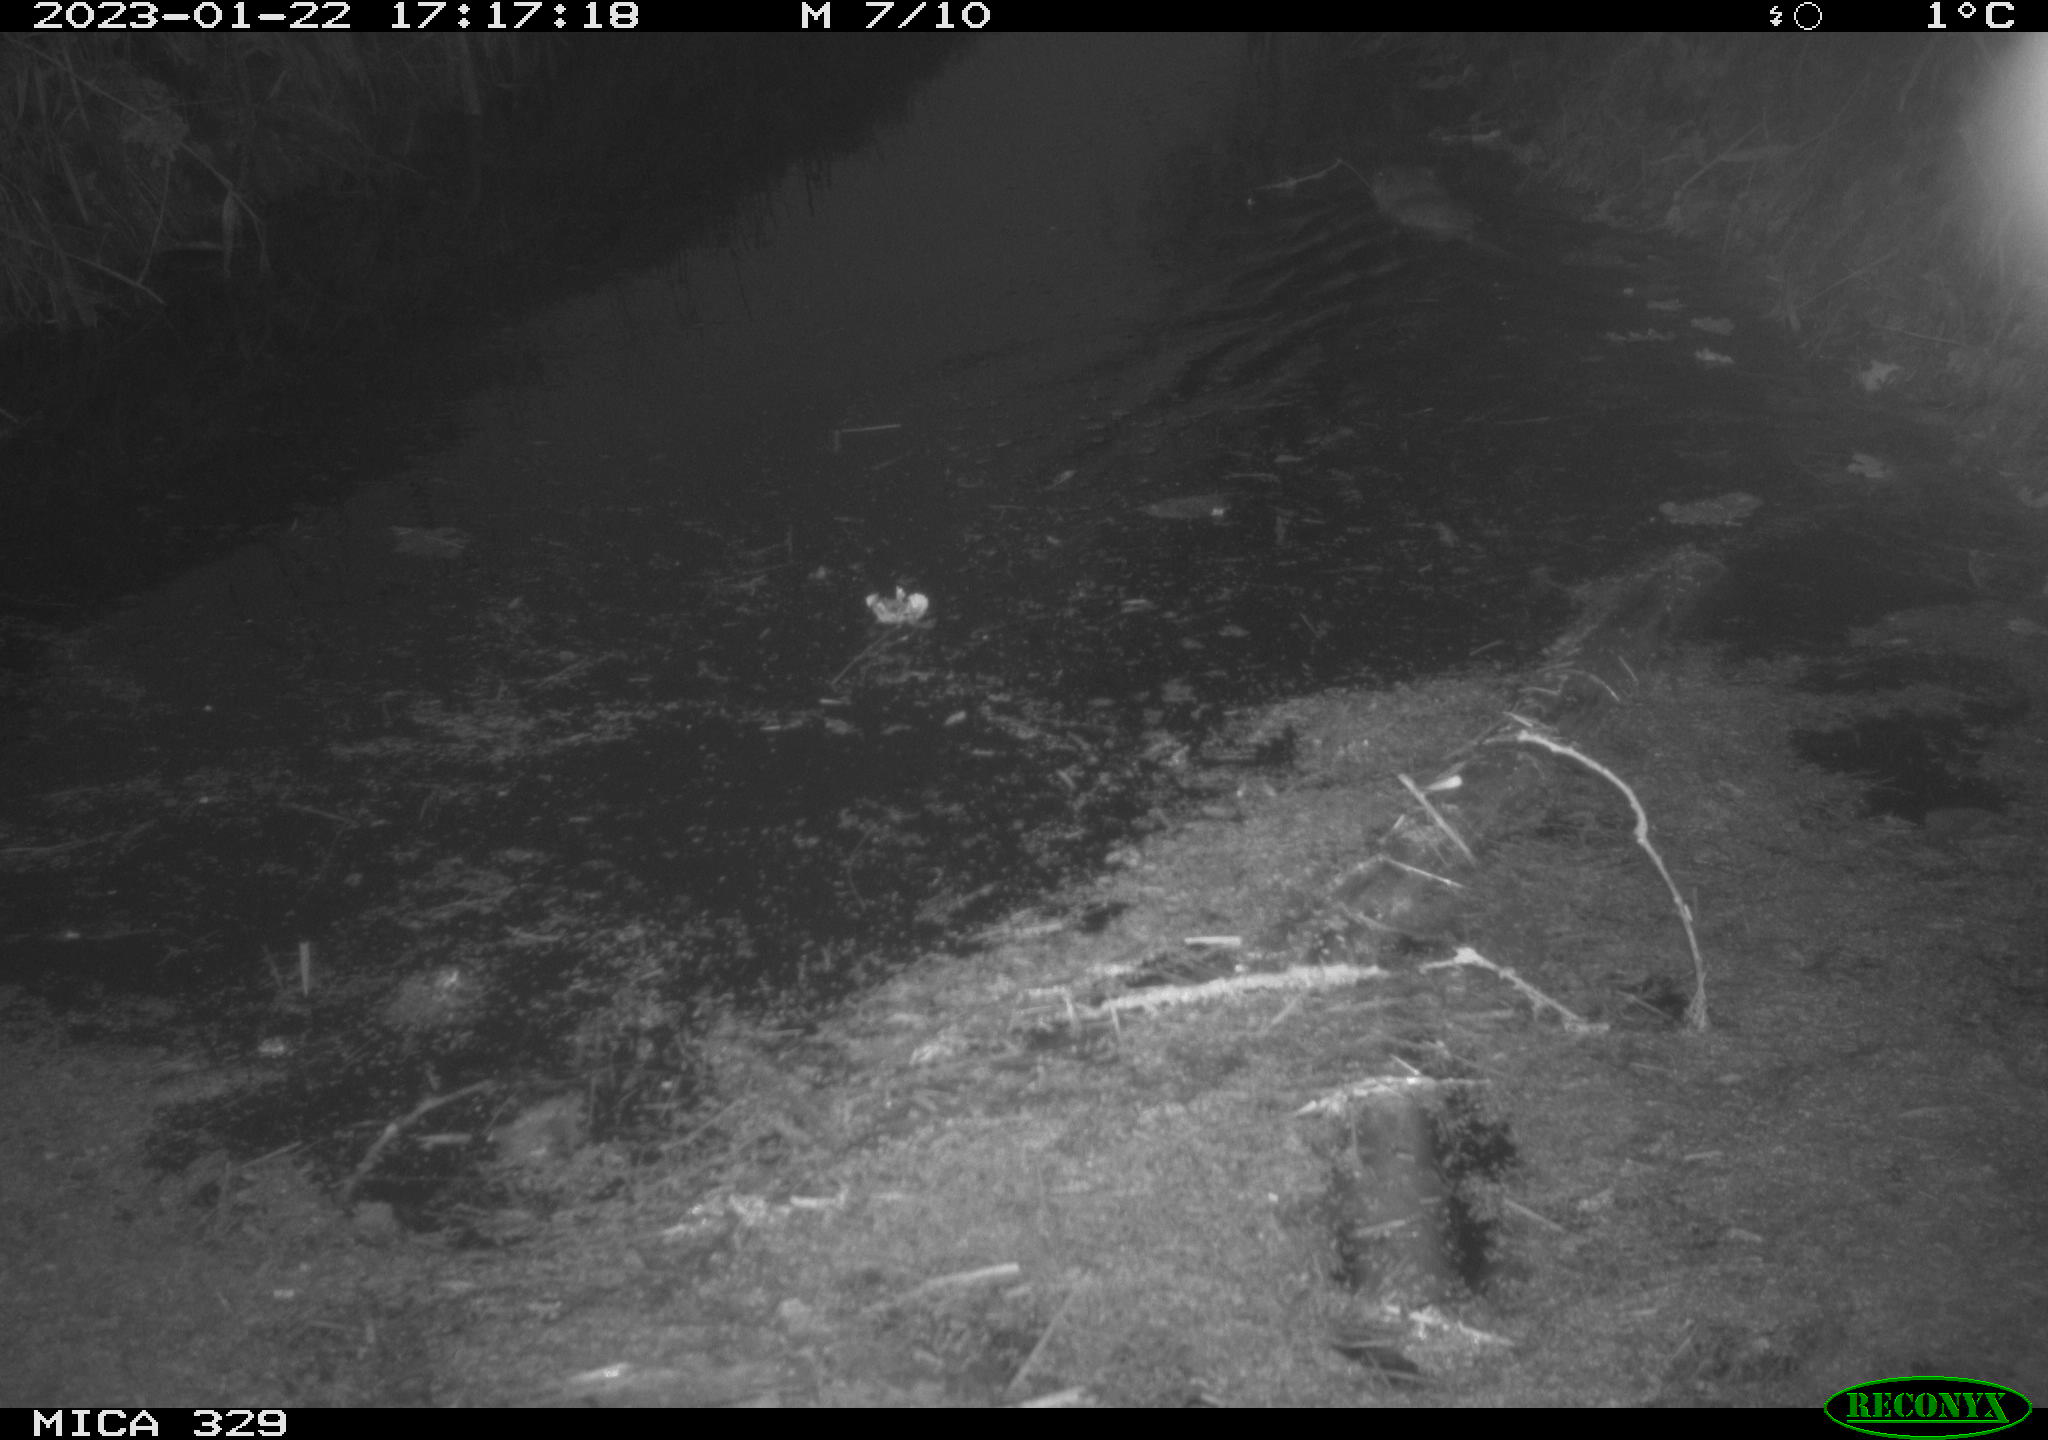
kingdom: Animalia
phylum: Chordata
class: Mammalia
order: Rodentia
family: Cricetidae
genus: Ondatra
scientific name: Ondatra zibethicus
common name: Muskrat
